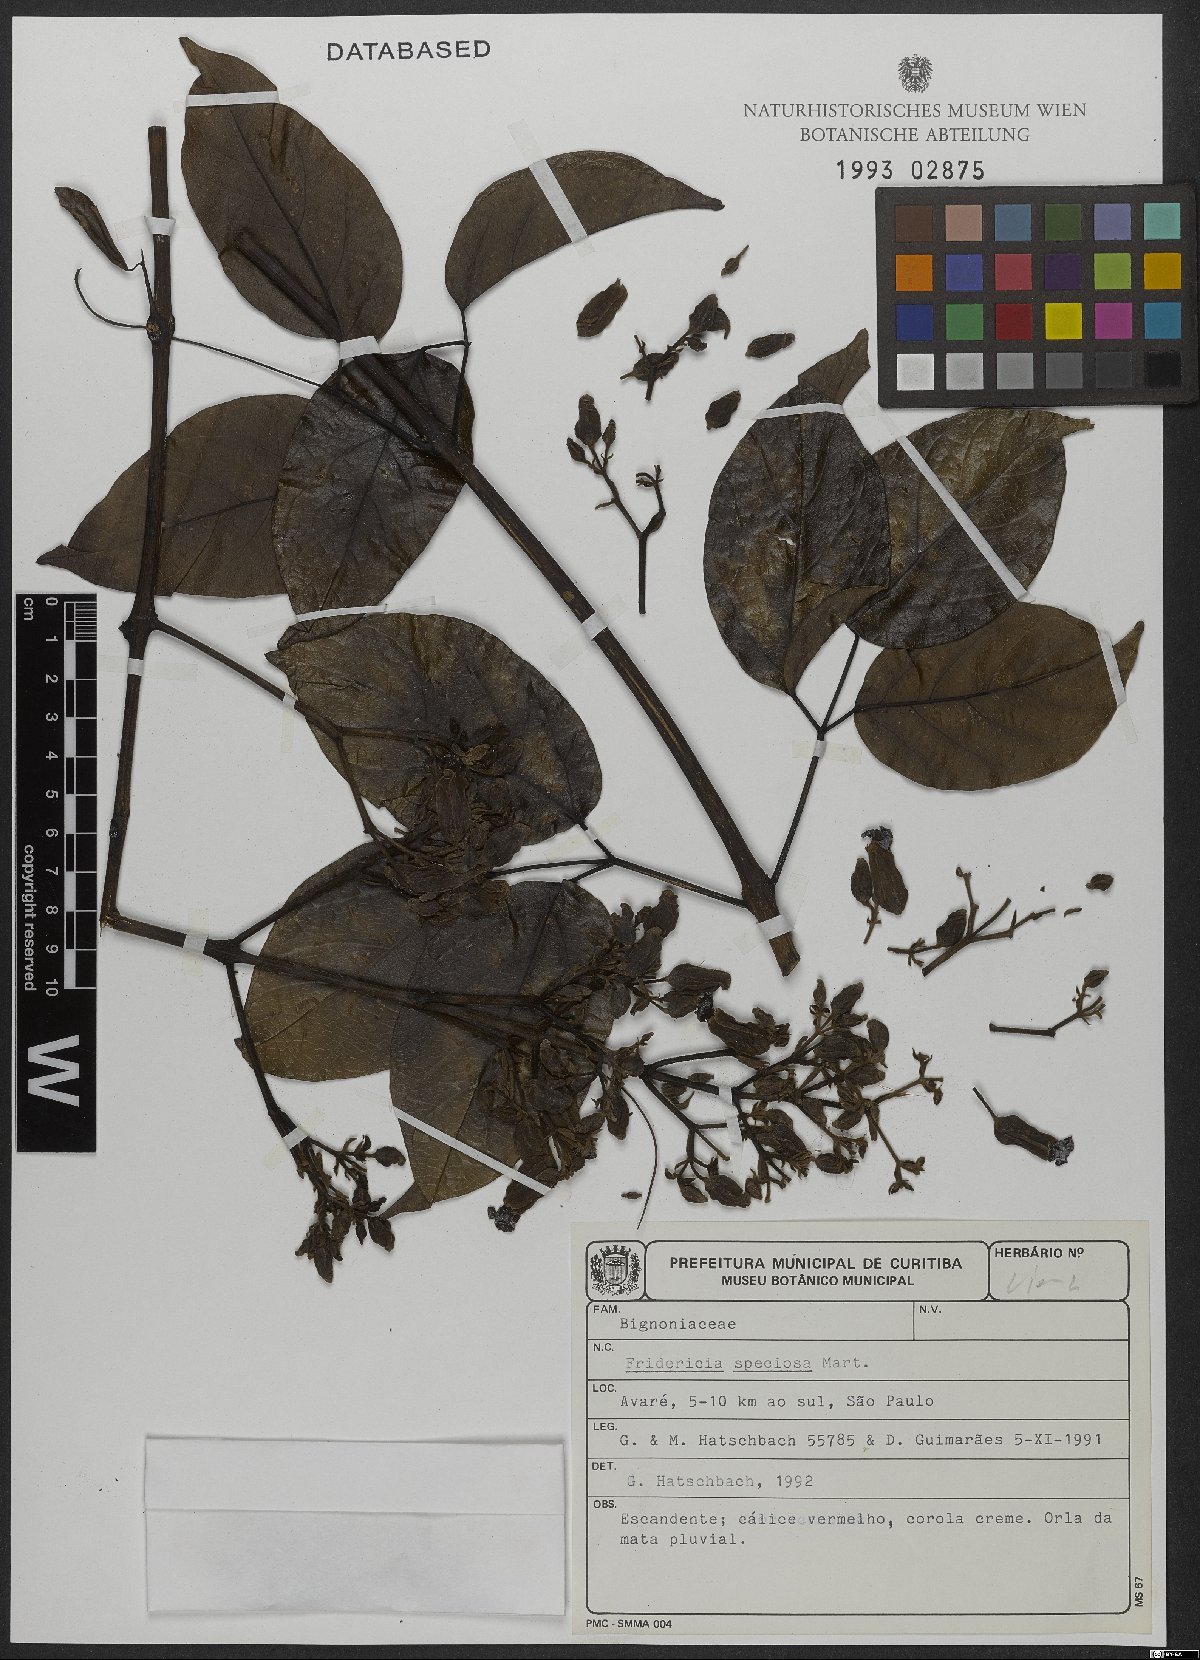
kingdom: Plantae
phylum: Tracheophyta
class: Magnoliopsida
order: Lamiales
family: Bignoniaceae
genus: Fridericia
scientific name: Fridericia speciosa
